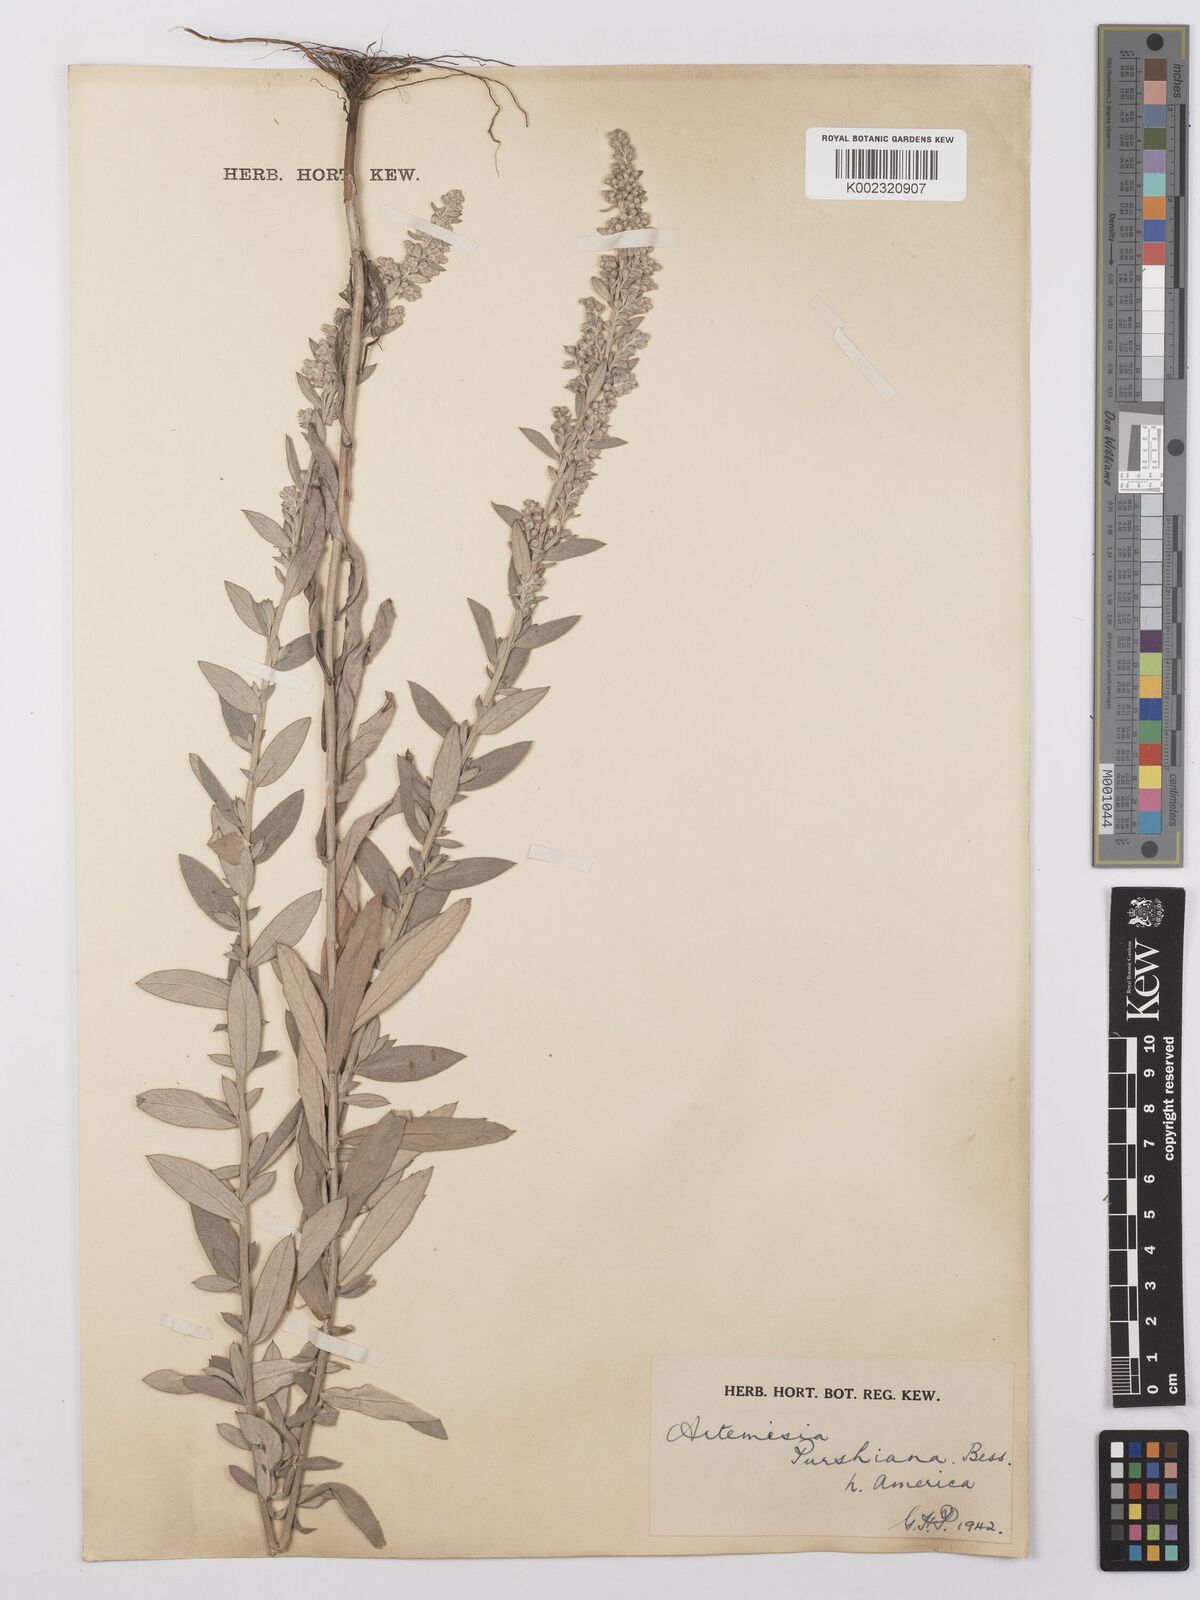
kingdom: Plantae
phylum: Tracheophyta
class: Magnoliopsida
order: Asterales
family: Asteraceae
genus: Artemisia
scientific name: Artemisia borealis
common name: Boreal sage
